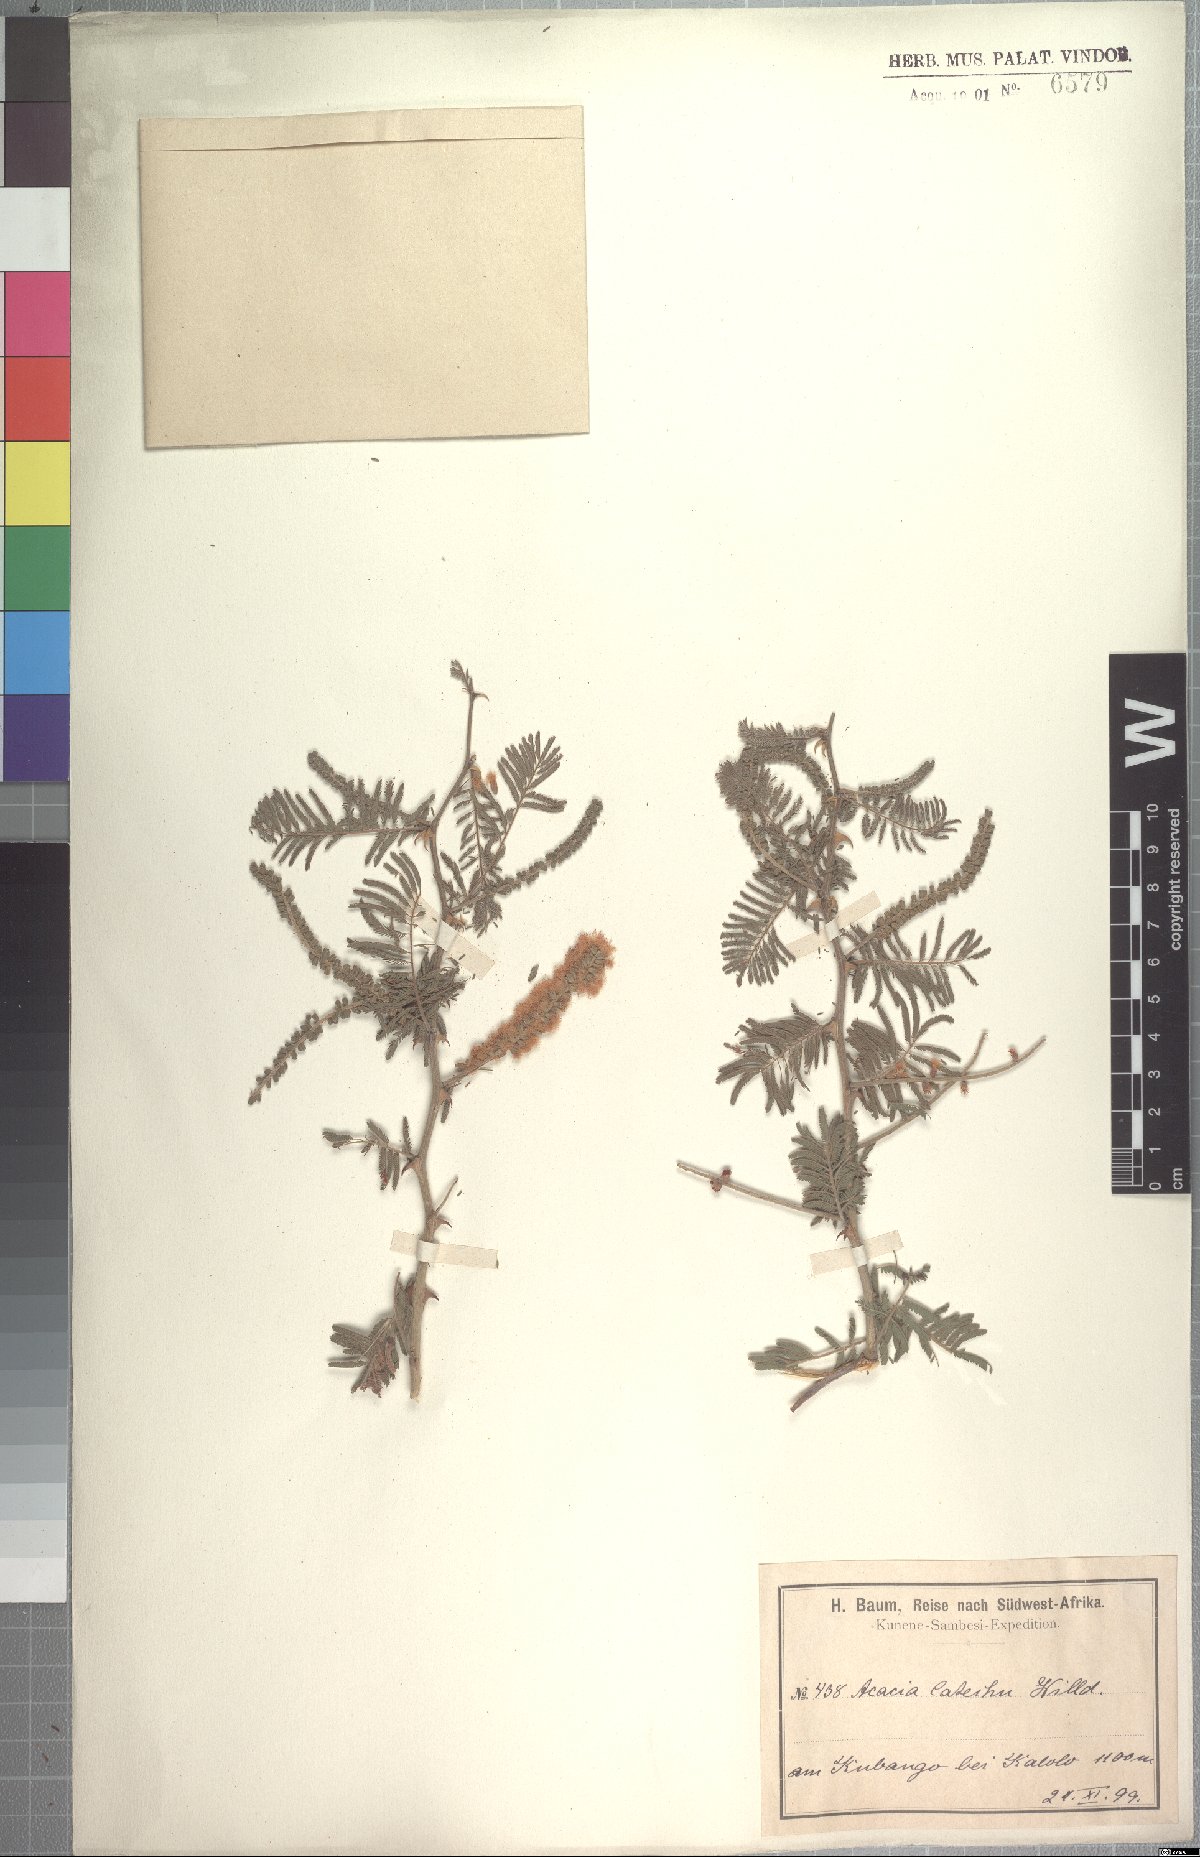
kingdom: Plantae
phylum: Tracheophyta
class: Magnoliopsida
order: Fabales
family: Fabaceae
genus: Senegalia
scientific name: Senegalia fleckii
